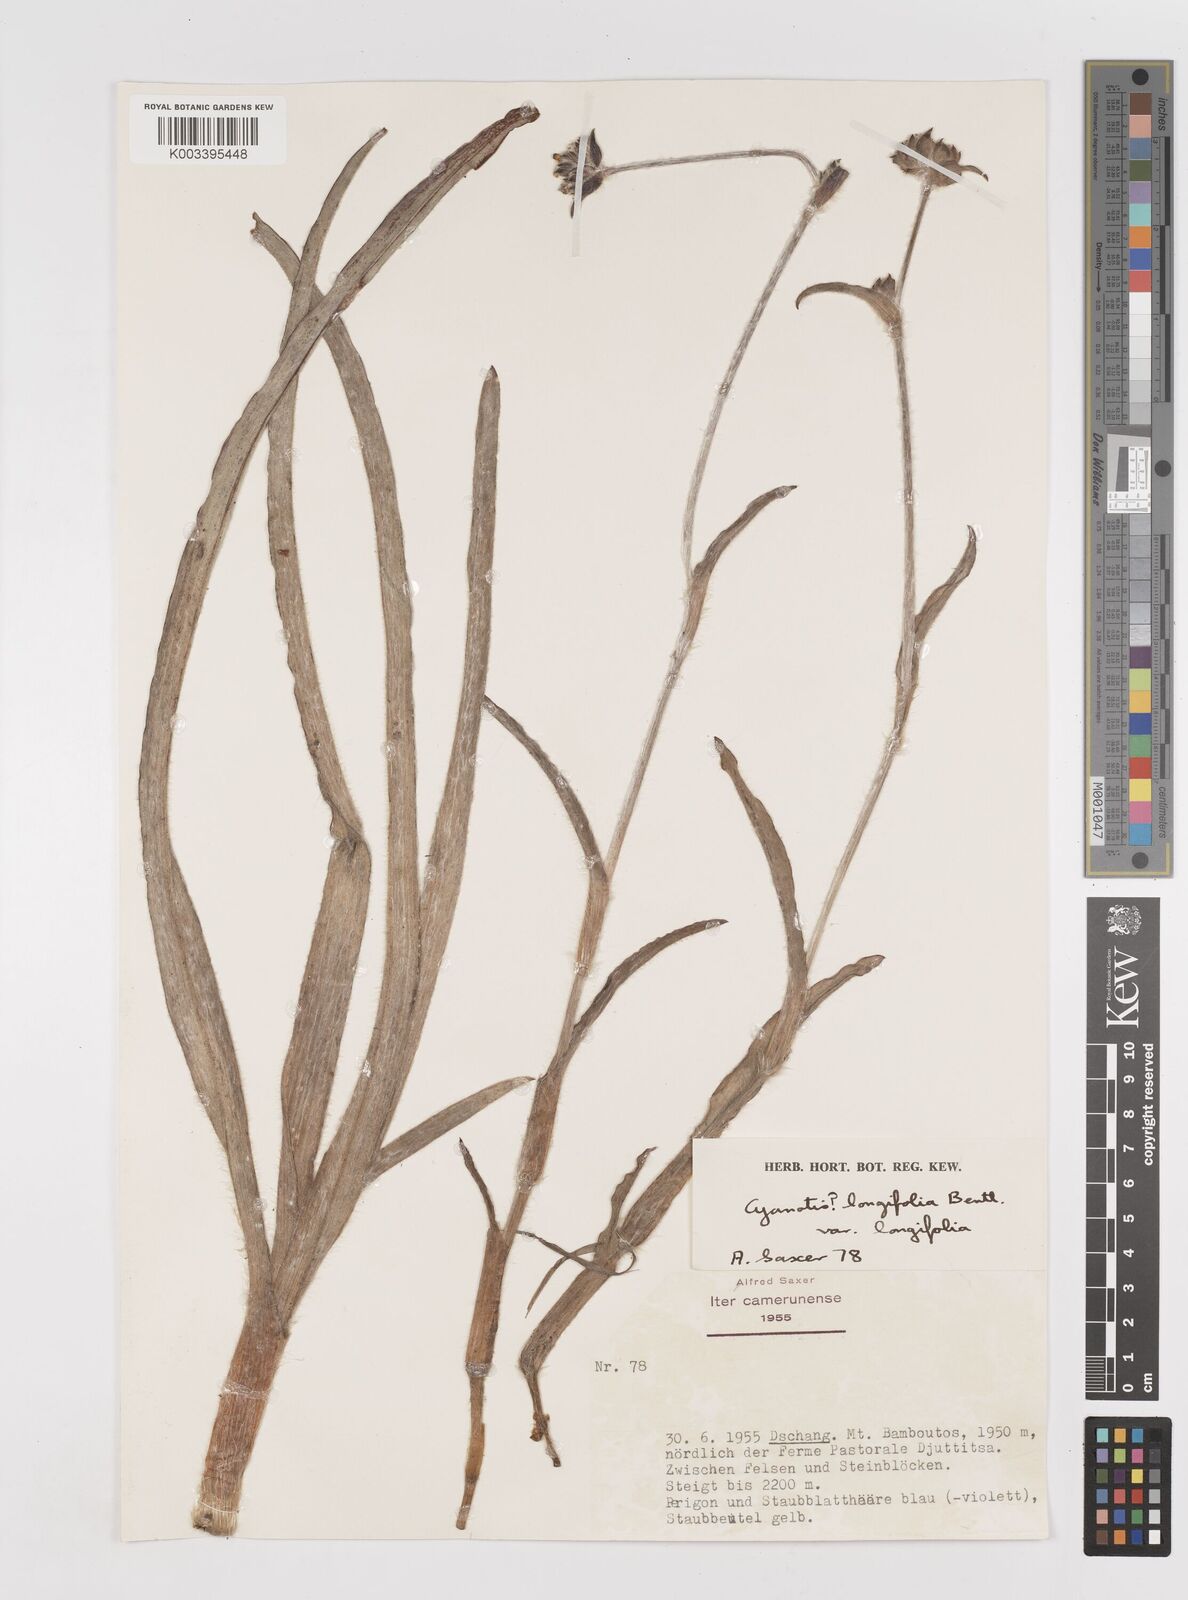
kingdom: Plantae
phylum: Tracheophyta
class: Liliopsida
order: Commelinales
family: Commelinaceae
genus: Cyanotis
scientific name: Cyanotis longifolia
